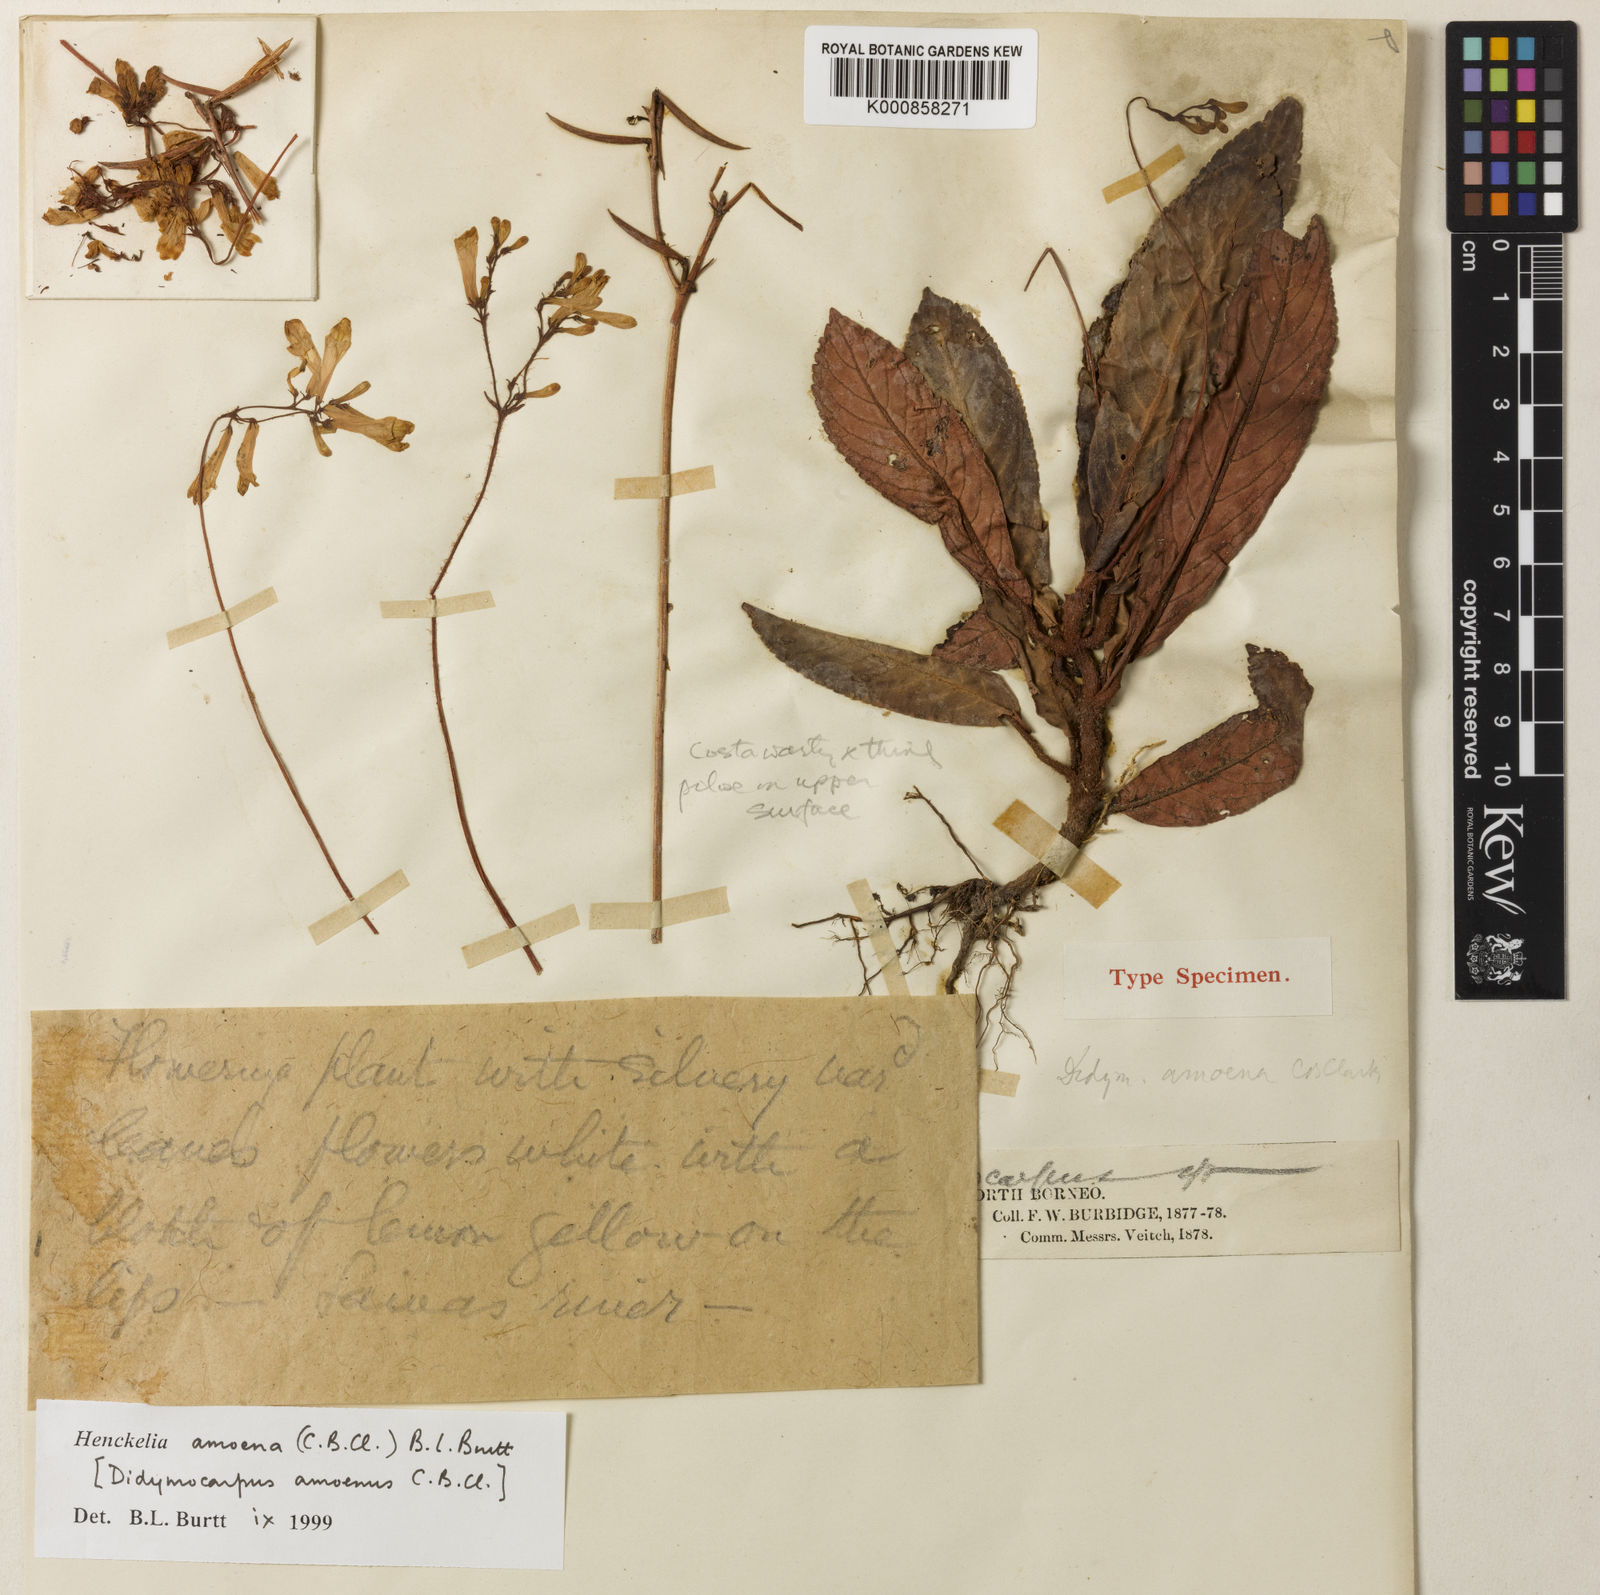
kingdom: Plantae
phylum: Tracheophyta
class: Magnoliopsida
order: Lamiales
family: Gesneriaceae
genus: Codonoboea
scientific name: Codonoboea amoena
